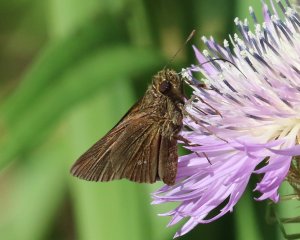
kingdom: Animalia
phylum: Arthropoda
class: Insecta
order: Lepidoptera
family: Hesperiidae
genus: Decinea
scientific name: Decinea percosius
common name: Double-dotted Skipper
